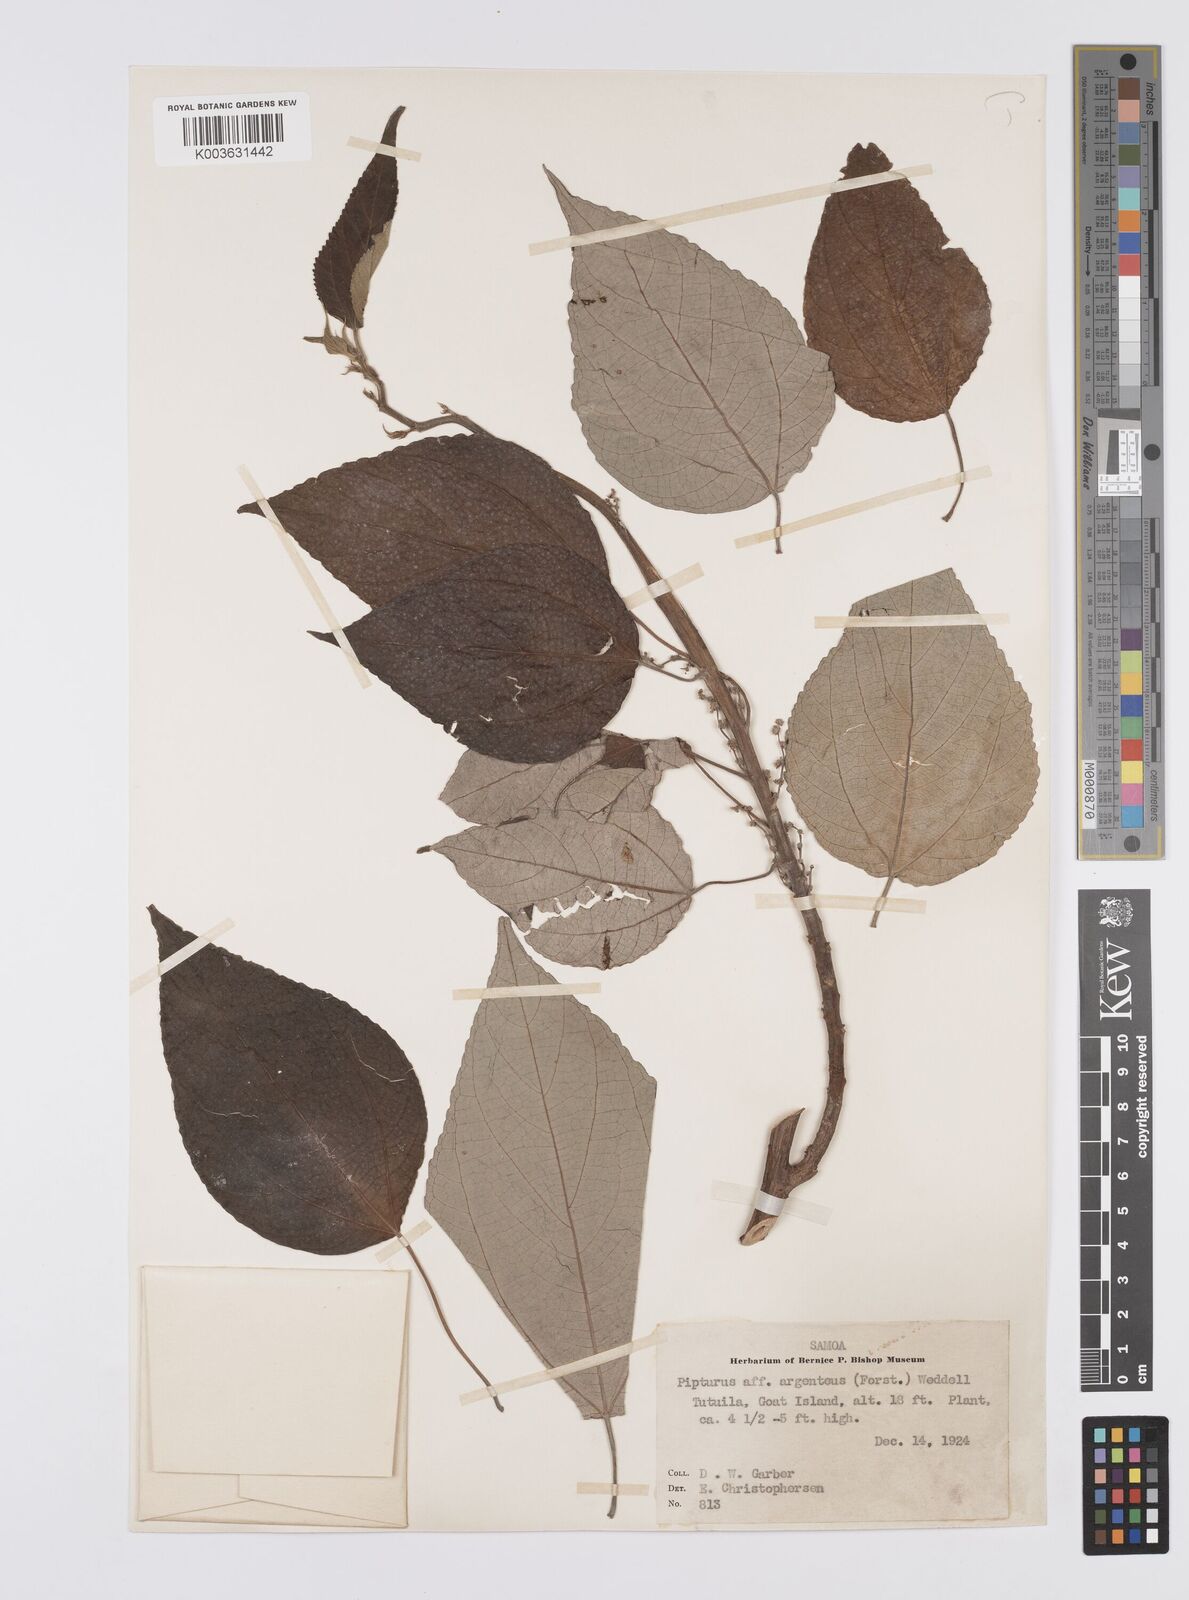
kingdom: Plantae
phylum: Tracheophyta
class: Magnoliopsida
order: Rosales
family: Urticaceae
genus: Pipturus
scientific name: Pipturus argenteus
